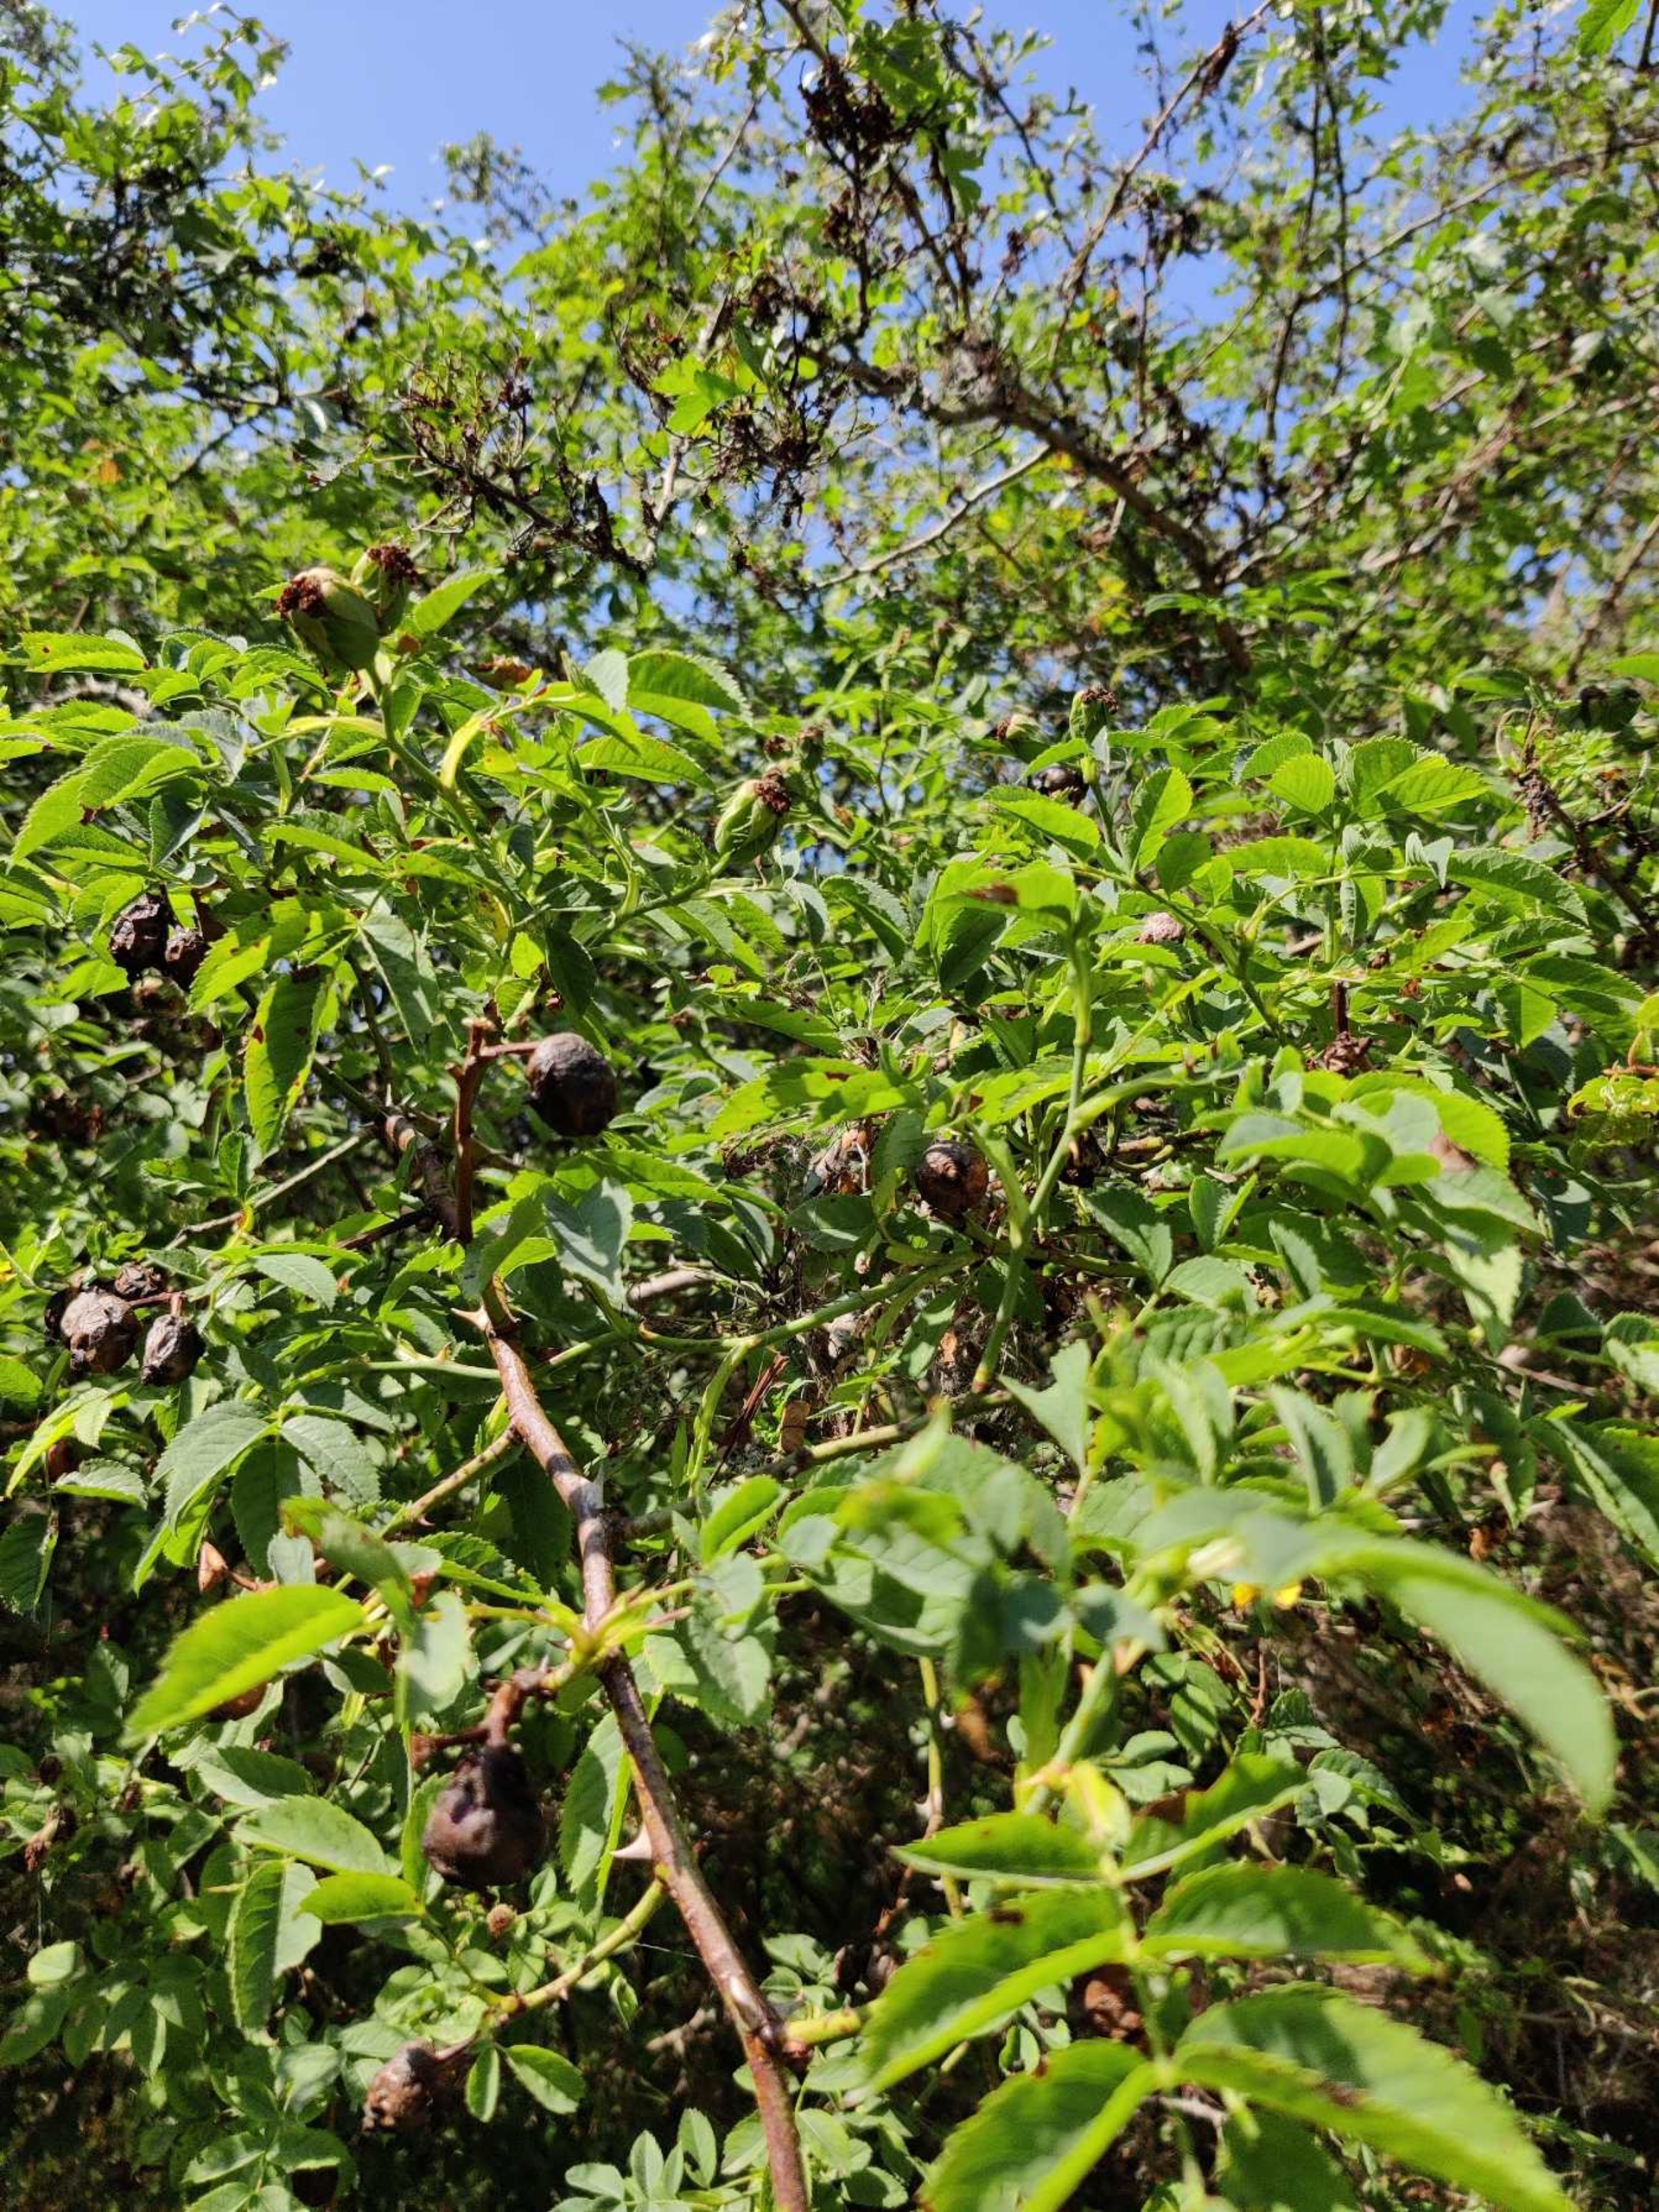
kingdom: Plantae
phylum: Tracheophyta
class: Magnoliopsida
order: Rosales
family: Rosaceae
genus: Rosa
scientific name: Rosa canina
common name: Hunde-rose
